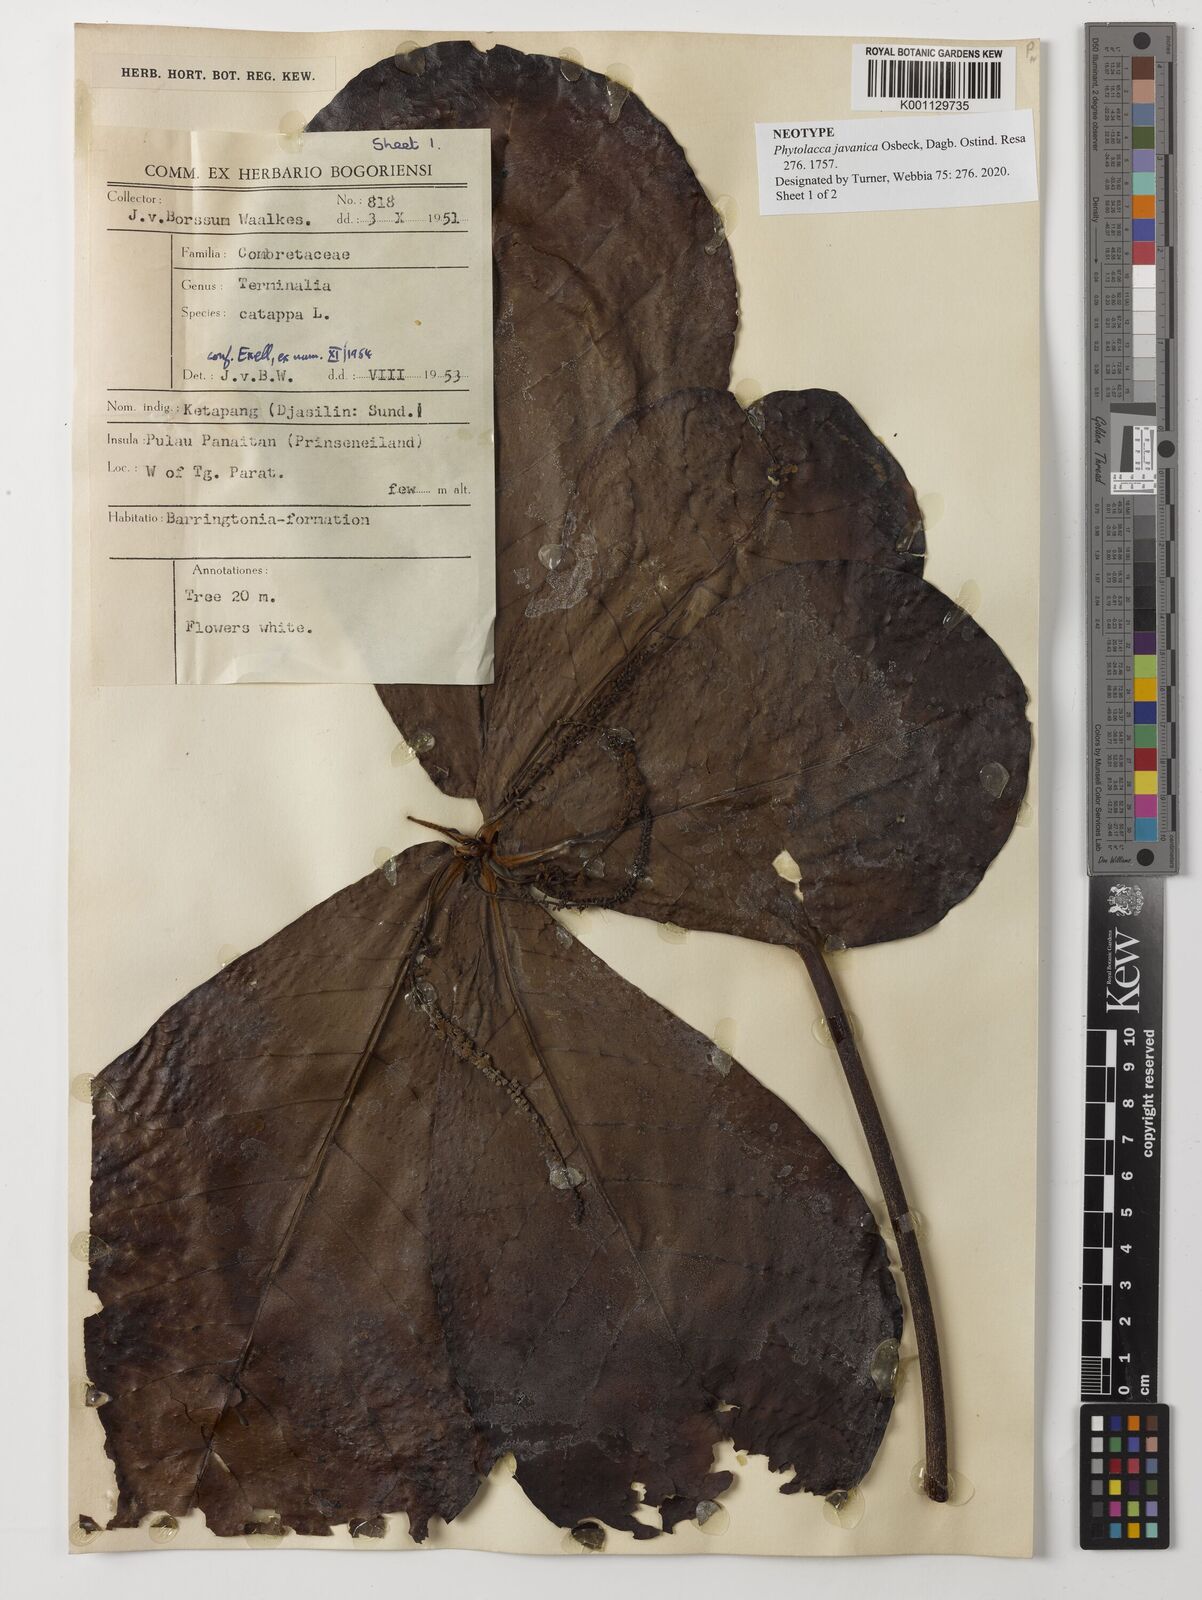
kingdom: Plantae
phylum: Tracheophyta
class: Magnoliopsida
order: Myrtales
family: Combretaceae
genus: Terminalia
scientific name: Terminalia catappa
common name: Tropical almond
